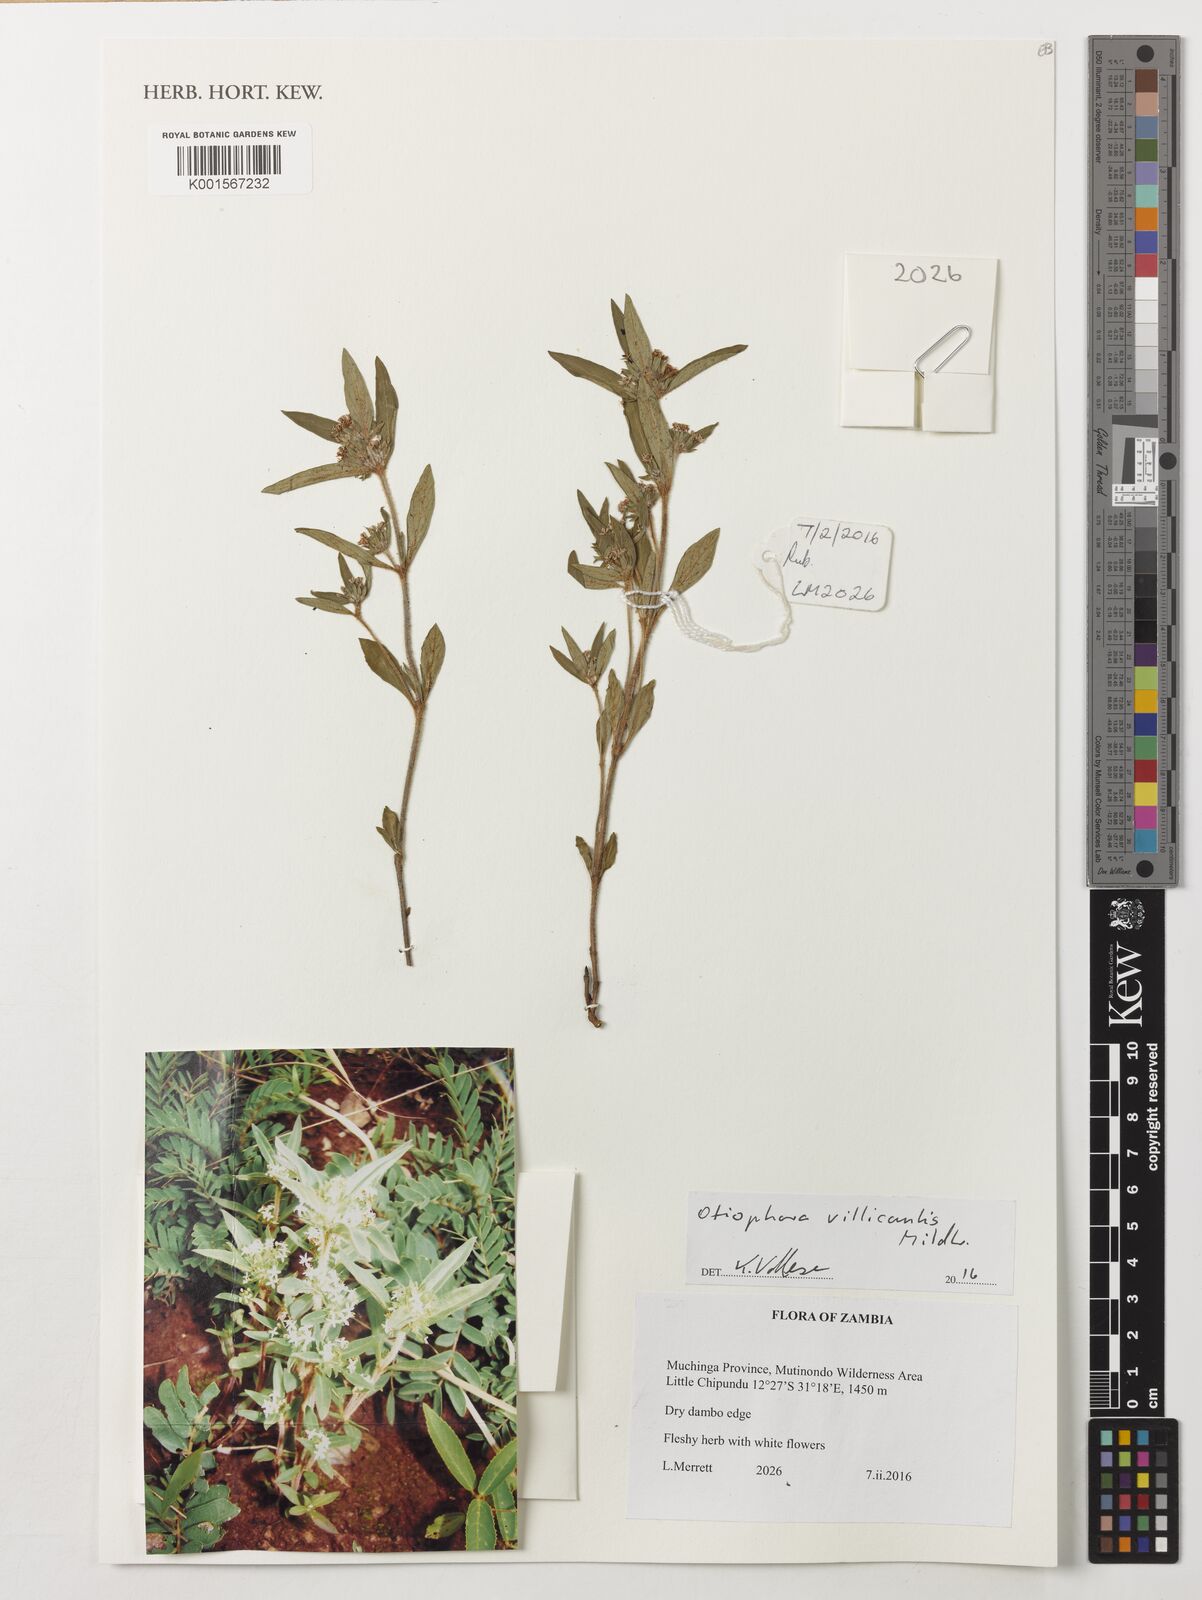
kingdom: Plantae
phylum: Tracheophyta
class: Magnoliopsida
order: Gentianales
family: Rubiaceae
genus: Otiophora
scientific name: Otiophora villicaulis
